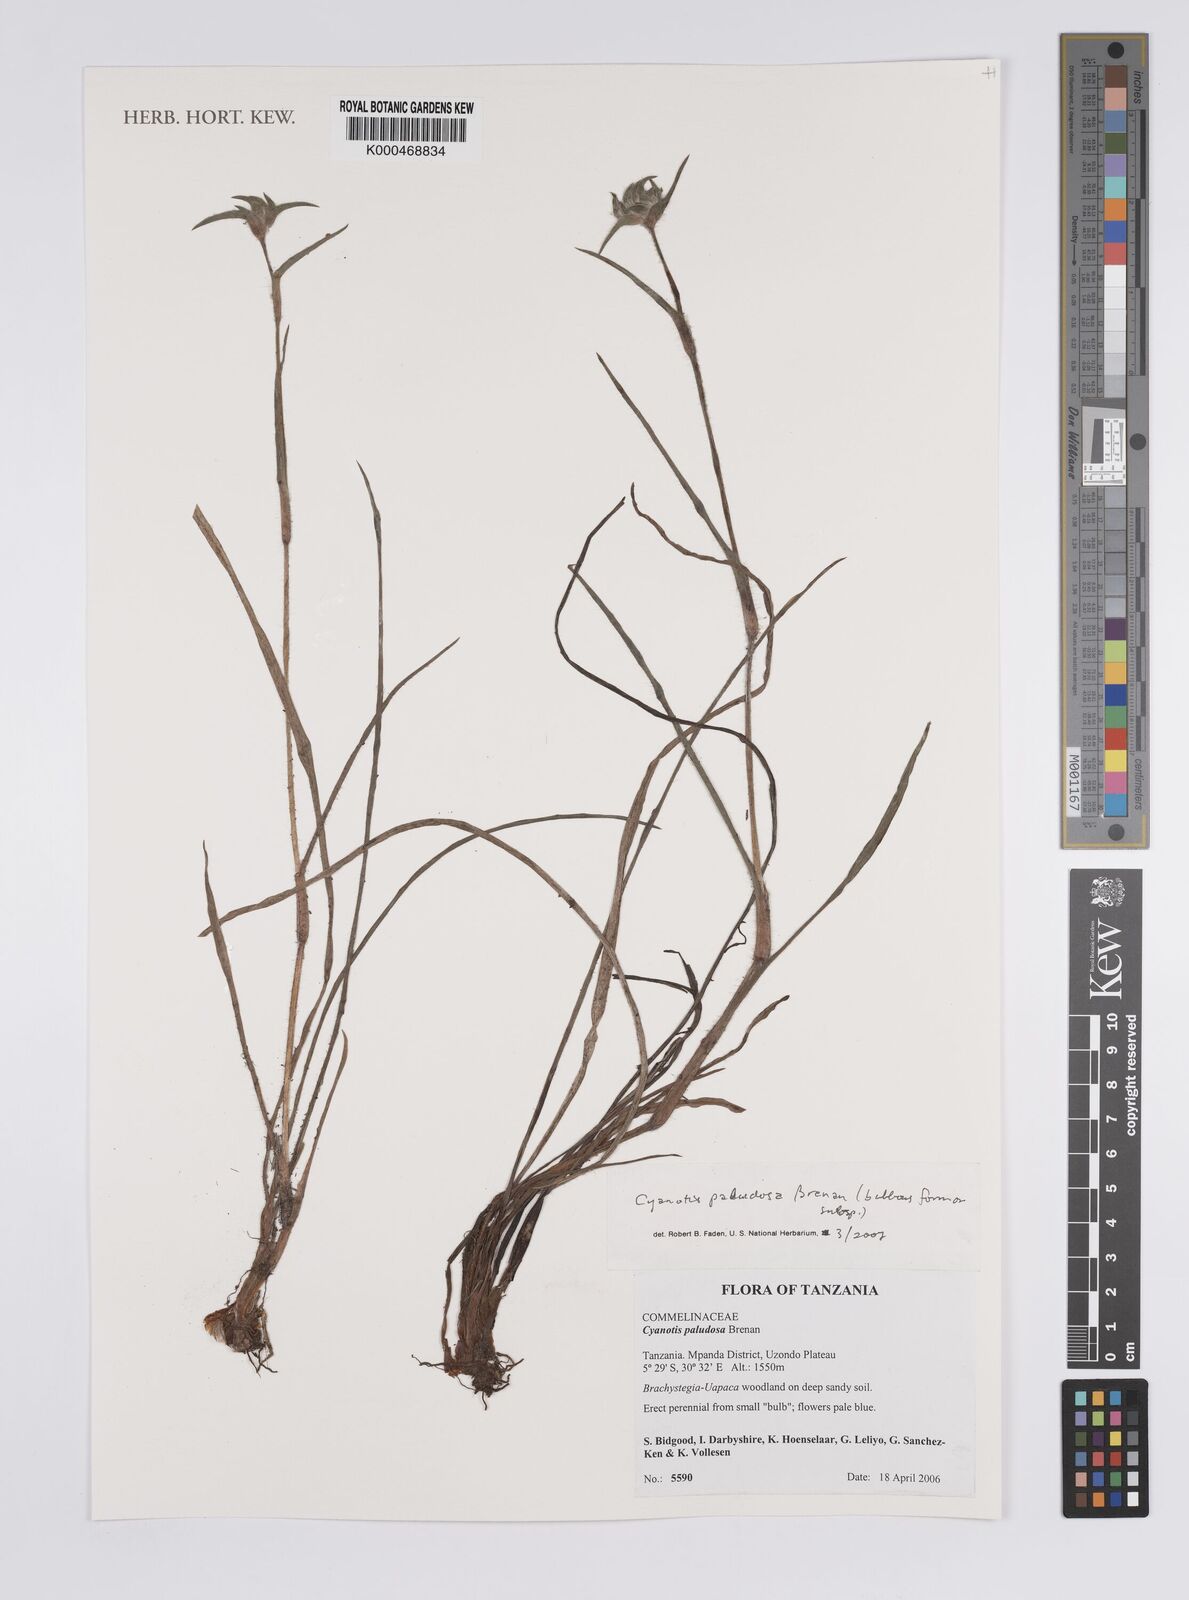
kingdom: Plantae
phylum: Tracheophyta
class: Liliopsida
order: Commelinales
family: Commelinaceae
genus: Cyanotis
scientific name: Cyanotis paludosa
